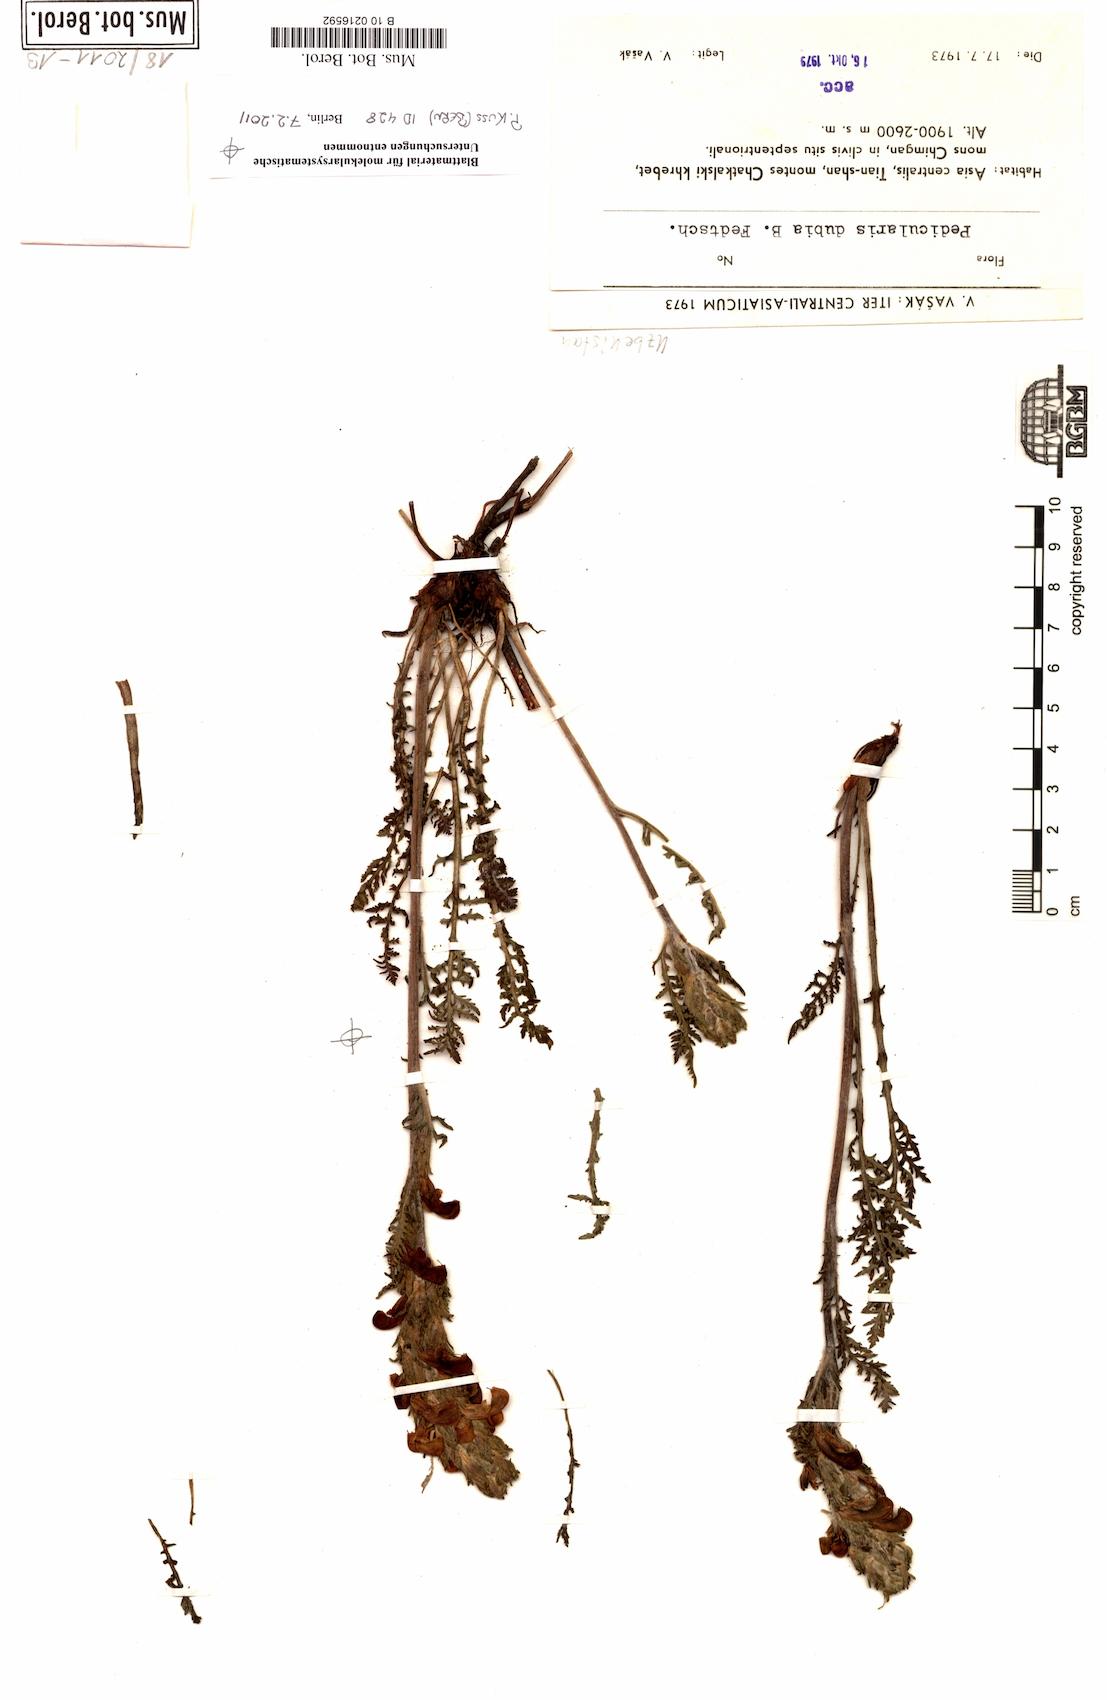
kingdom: Plantae
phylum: Tracheophyta
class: Magnoliopsida
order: Lamiales
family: Orobanchaceae
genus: Pedicularis
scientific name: Pedicularis dubia
